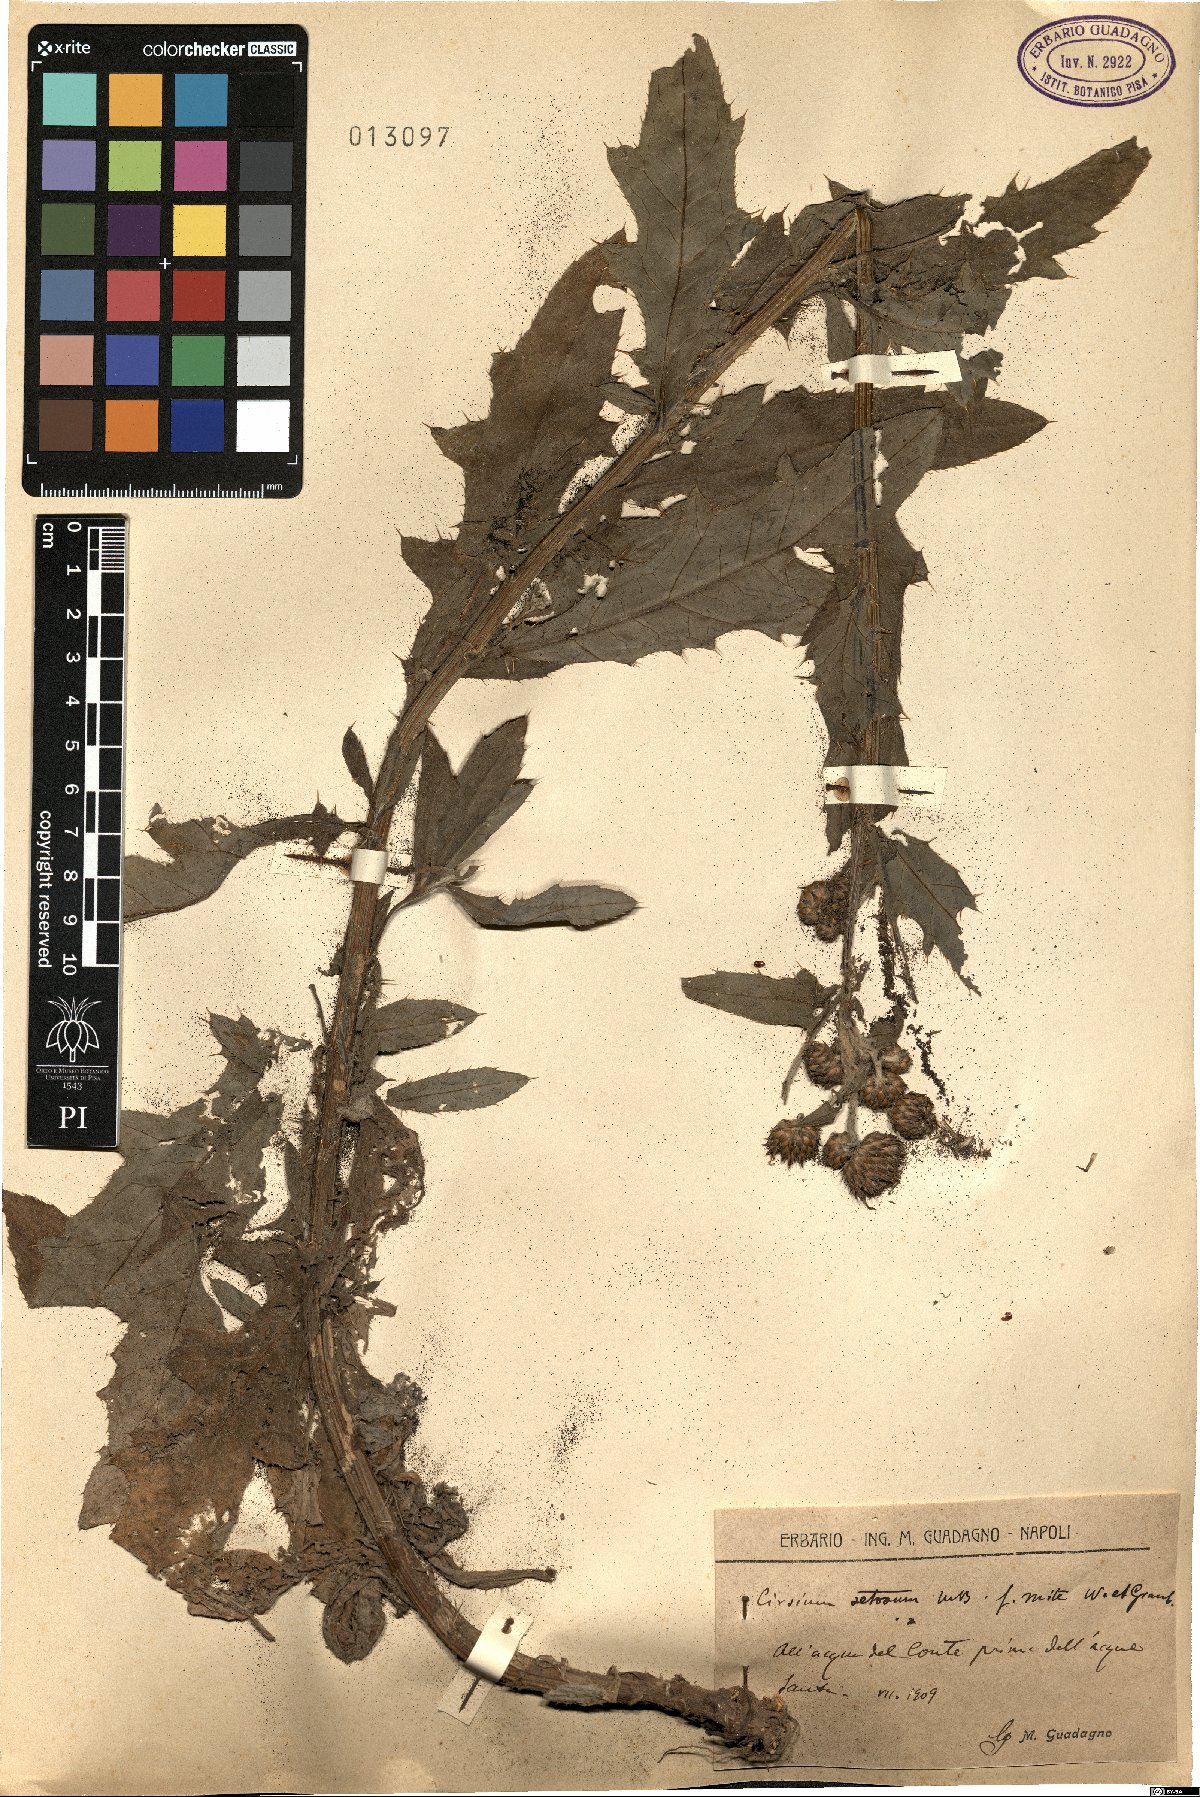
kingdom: Plantae
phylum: Tracheophyta
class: Magnoliopsida
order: Asterales
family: Asteraceae
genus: Cirsium
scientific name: Cirsium arvense
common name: Creeping thistle
